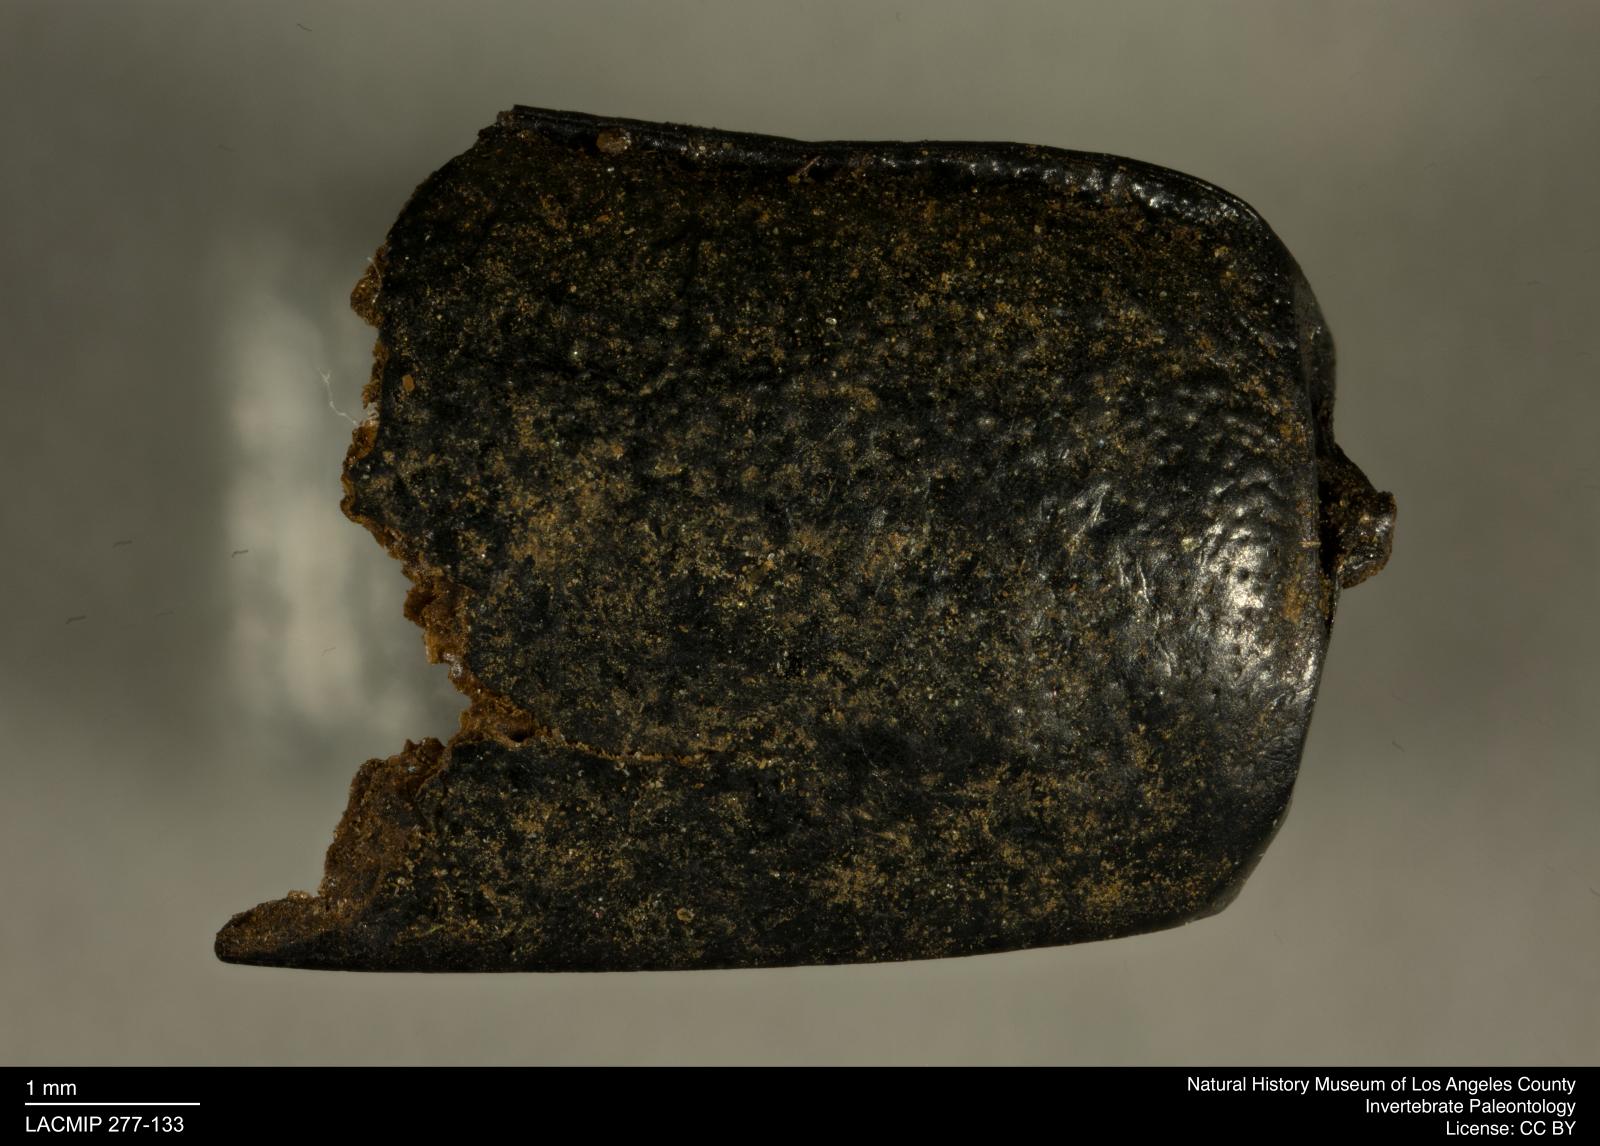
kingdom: Animalia
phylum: Arthropoda
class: Insecta
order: Coleoptera
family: Tenebrionidae
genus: Coniontis
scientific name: Coniontis abdominalis
